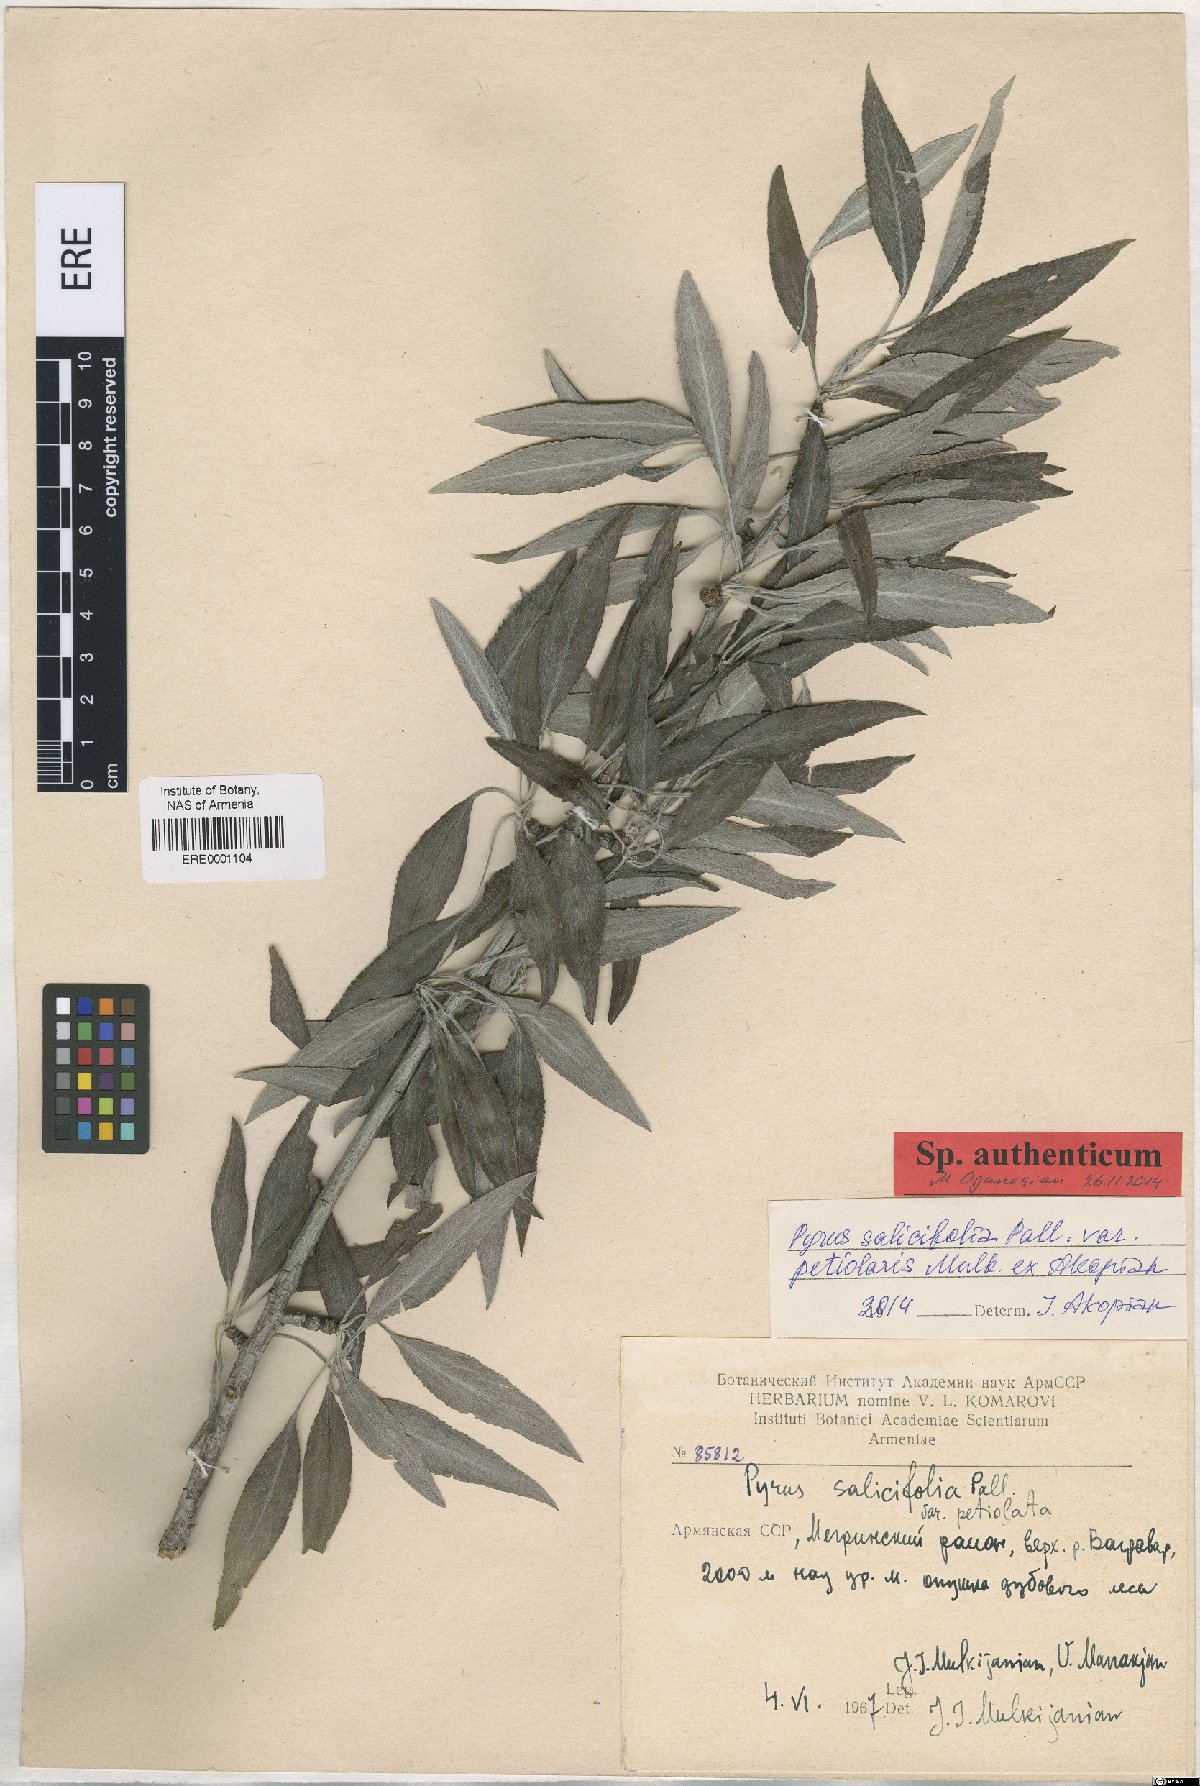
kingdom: Plantae
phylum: Tracheophyta
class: Magnoliopsida
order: Rosales
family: Rosaceae
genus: Pyrus
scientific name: Pyrus salicifolia
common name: Willow-leaved pear
